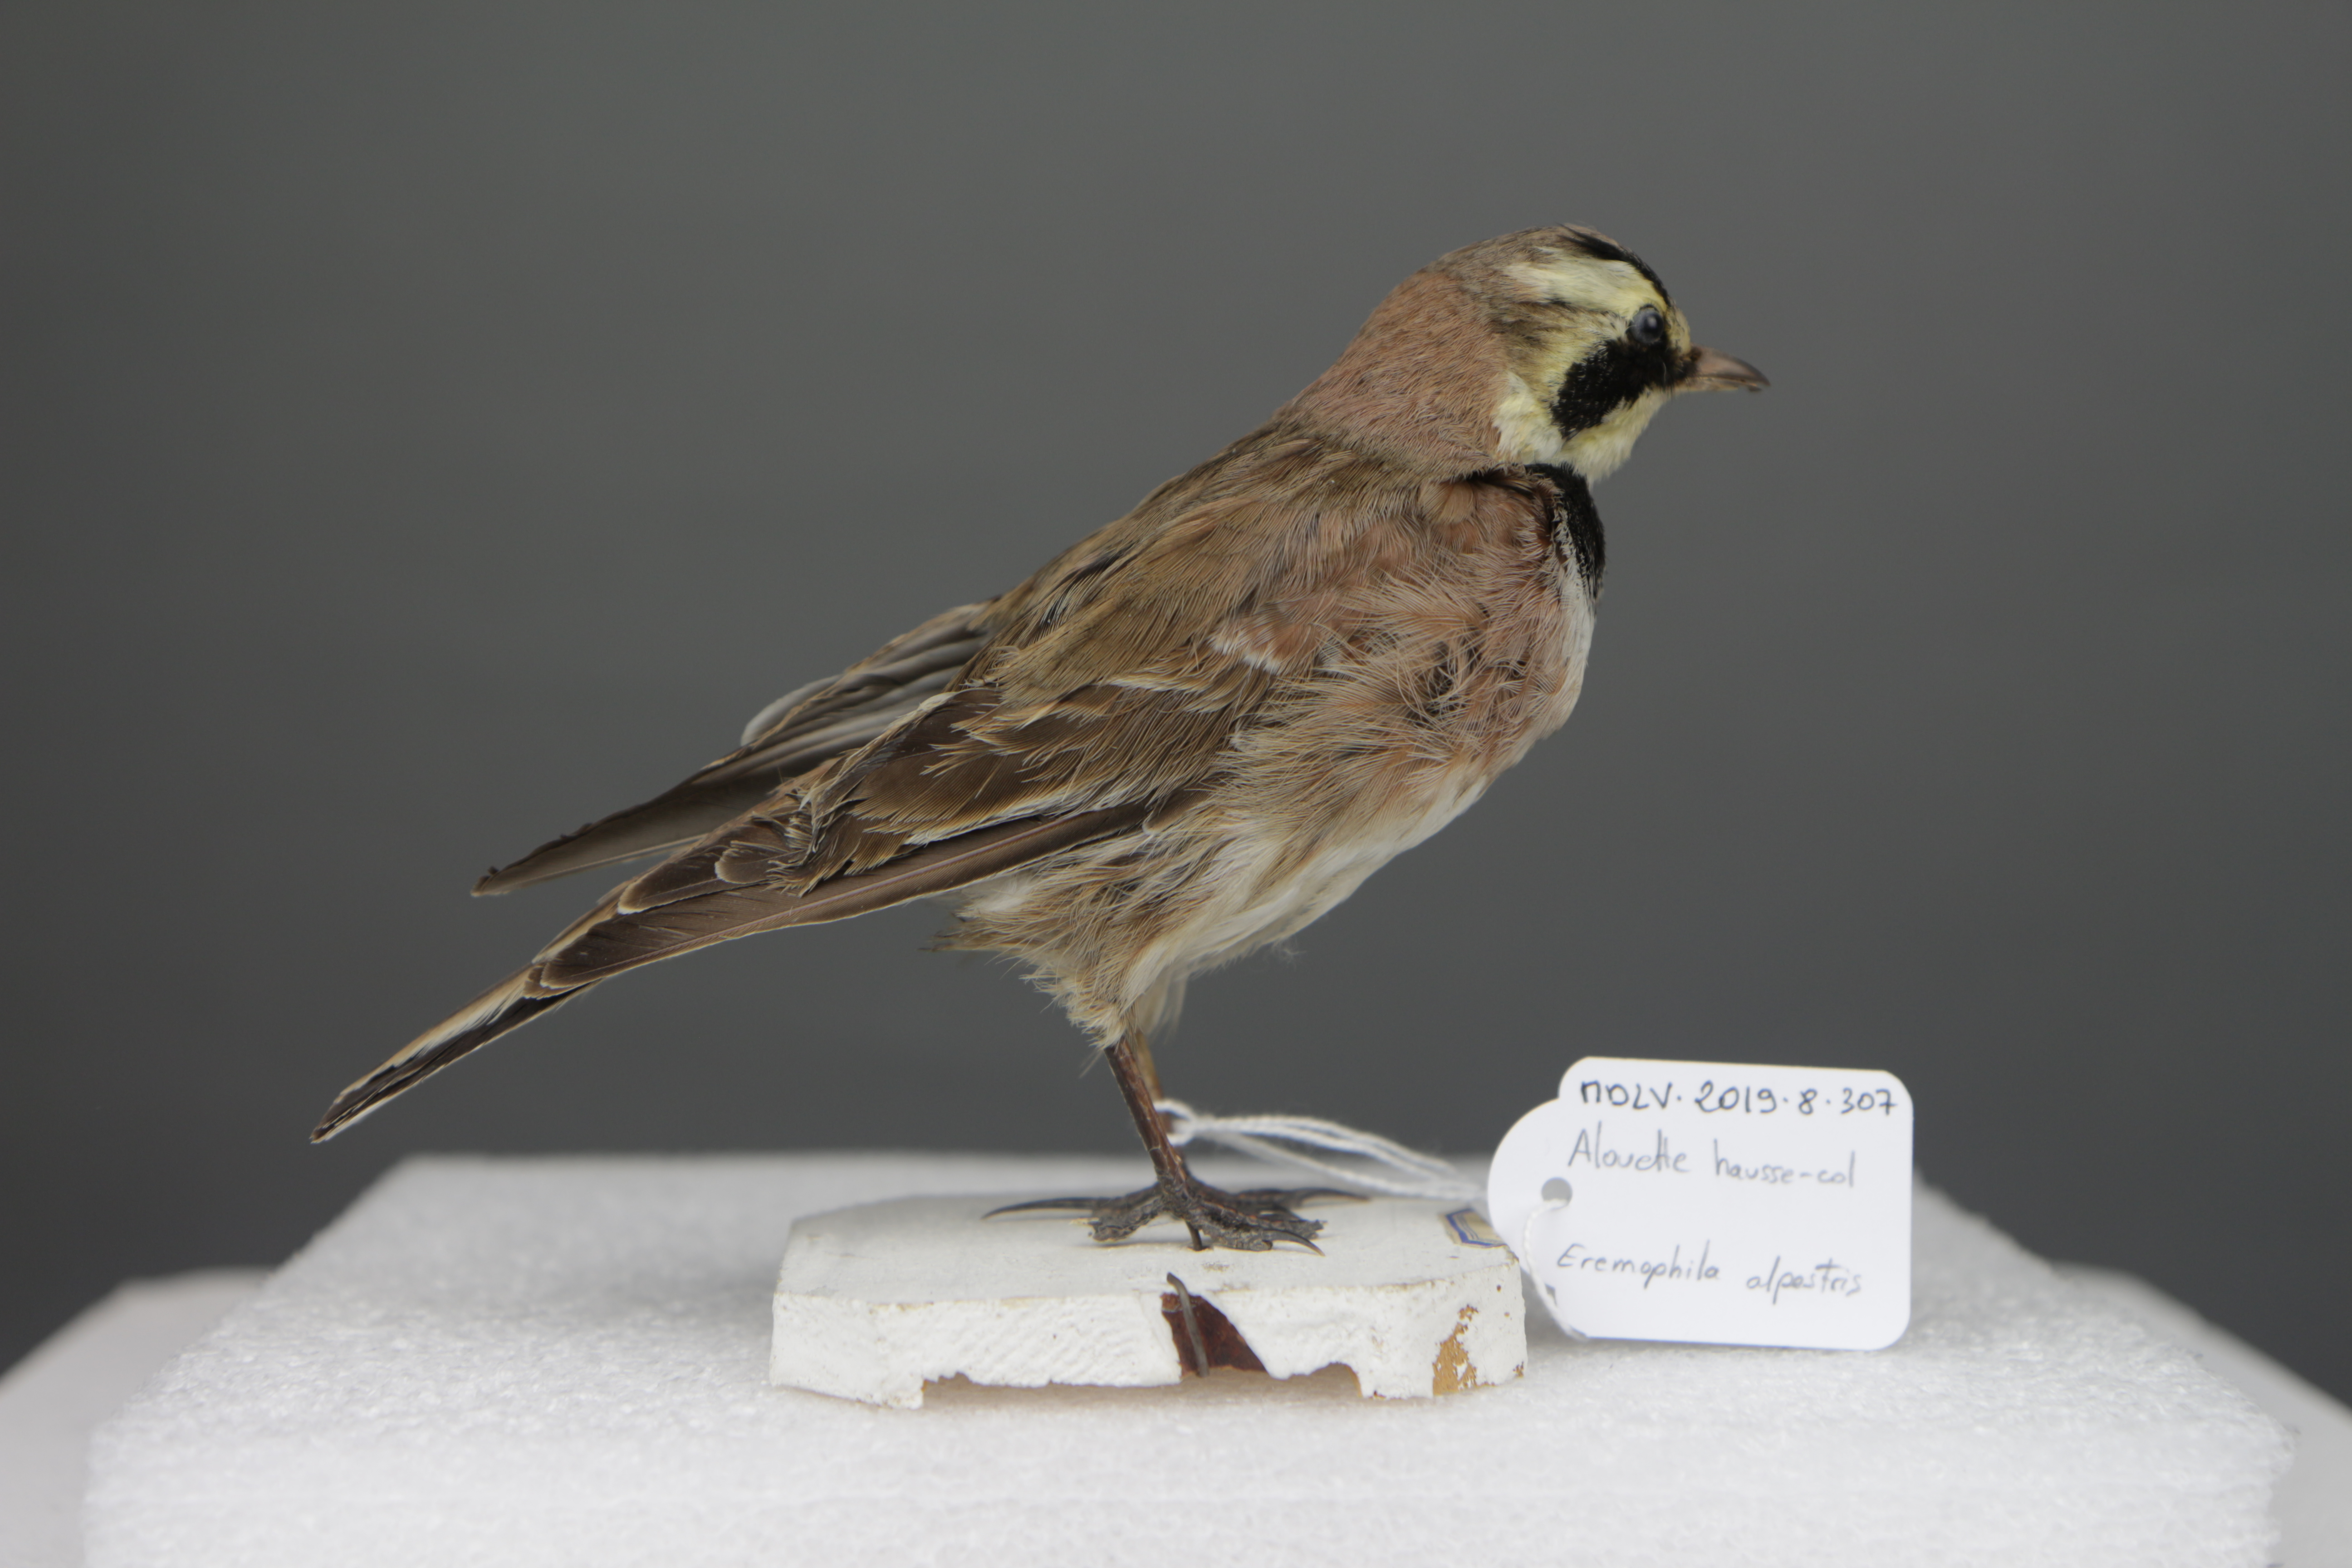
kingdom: Animalia
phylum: Chordata
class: Aves
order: Passeriformes
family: Alaudidae
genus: Eremophila
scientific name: Eremophila alpestris
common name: Horned lark
